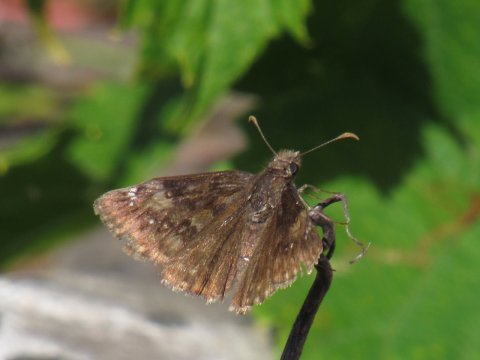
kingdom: Animalia
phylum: Arthropoda
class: Insecta
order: Lepidoptera
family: Hesperiidae
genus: Gesta
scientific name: Gesta
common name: Wild Indigo Duskywing
